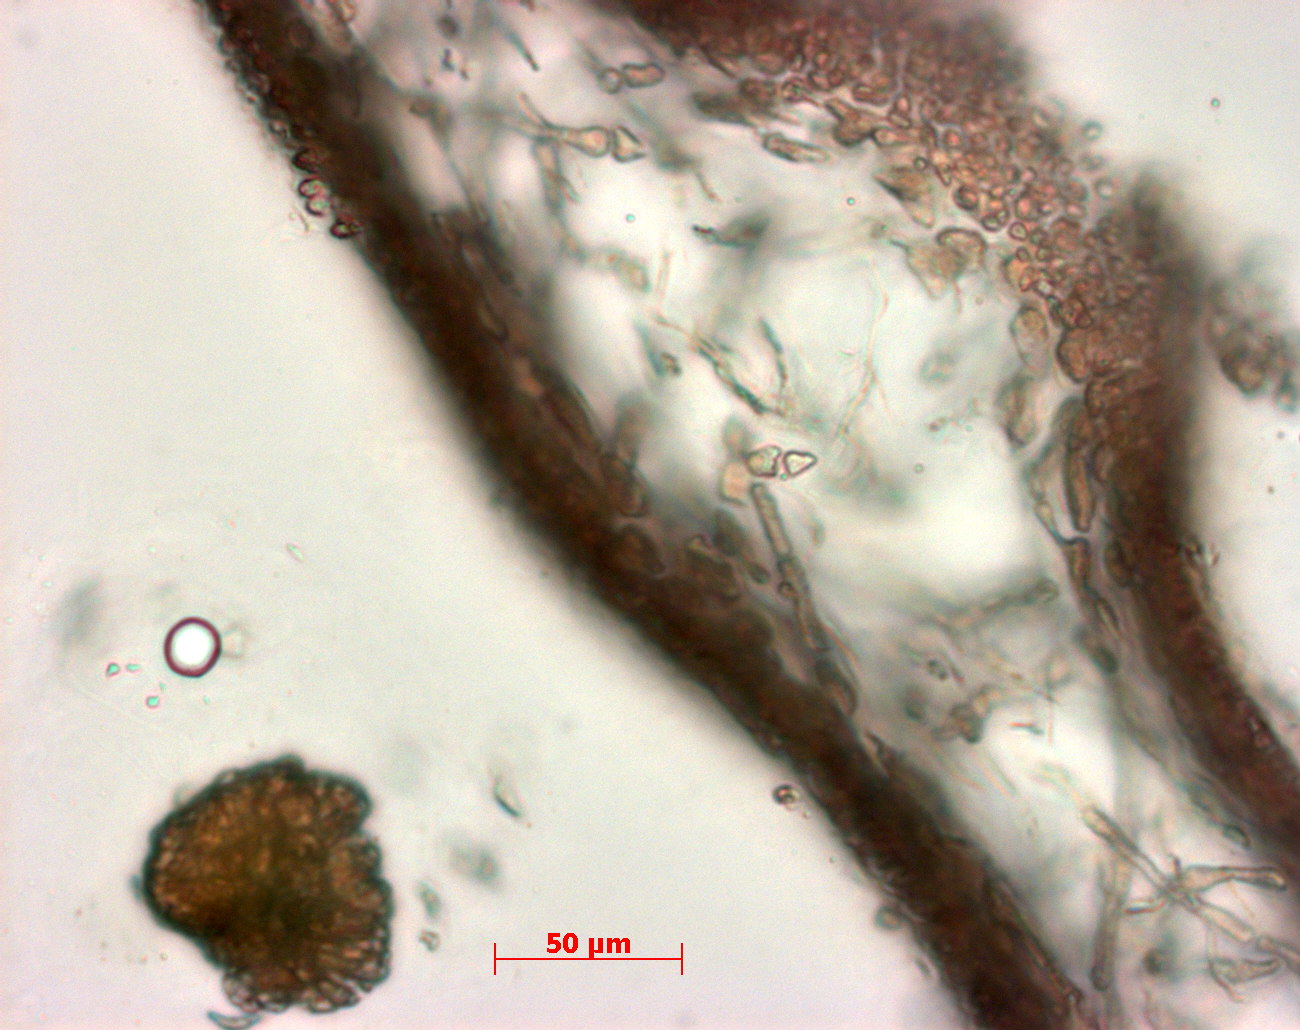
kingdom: Plantae
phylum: Rhodophyta
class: Florideophyceae
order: Halymeniales
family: Halymeniaceae
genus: Cryptonemia
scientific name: Cryptonemia latissima
